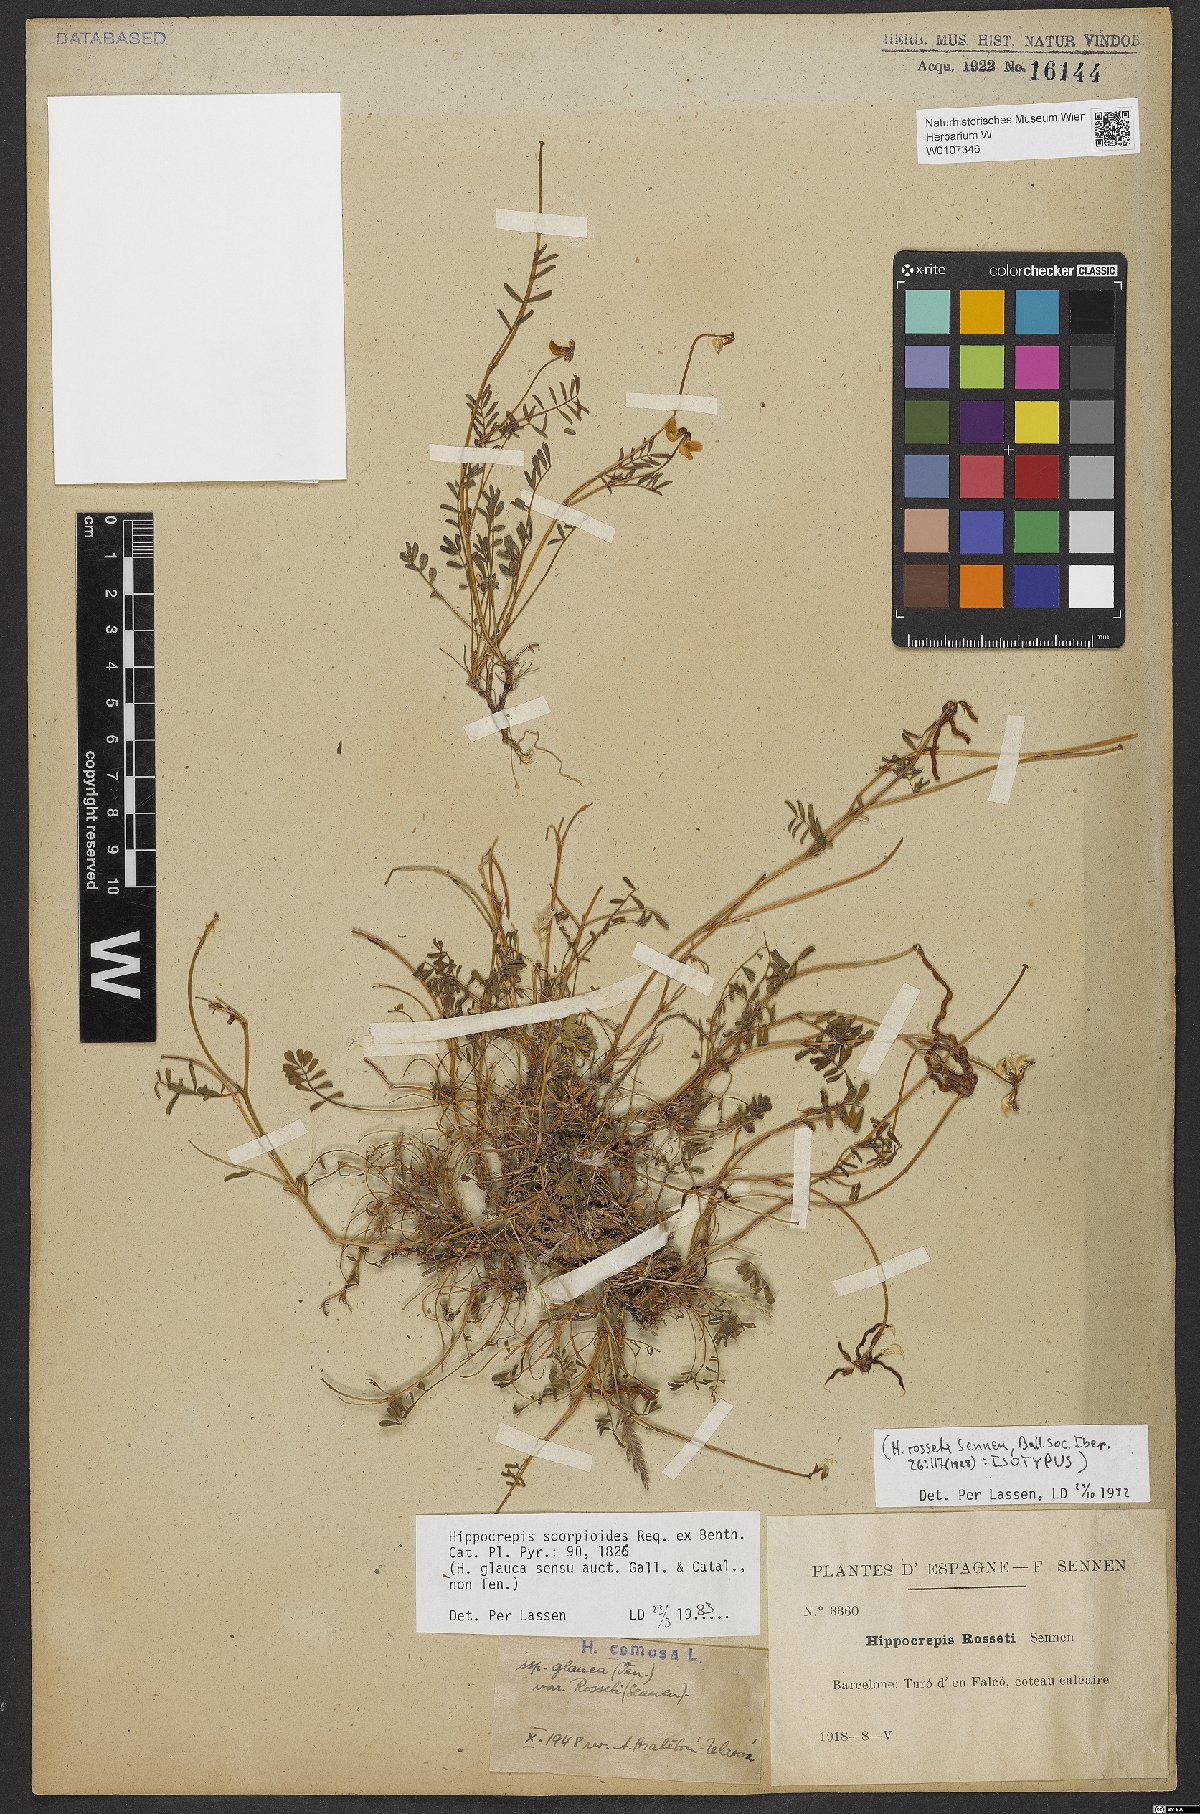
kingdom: Plantae
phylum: Tracheophyta
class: Magnoliopsida
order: Fabales
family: Fabaceae
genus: Hippocrepis
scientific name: Hippocrepis scorpioides
